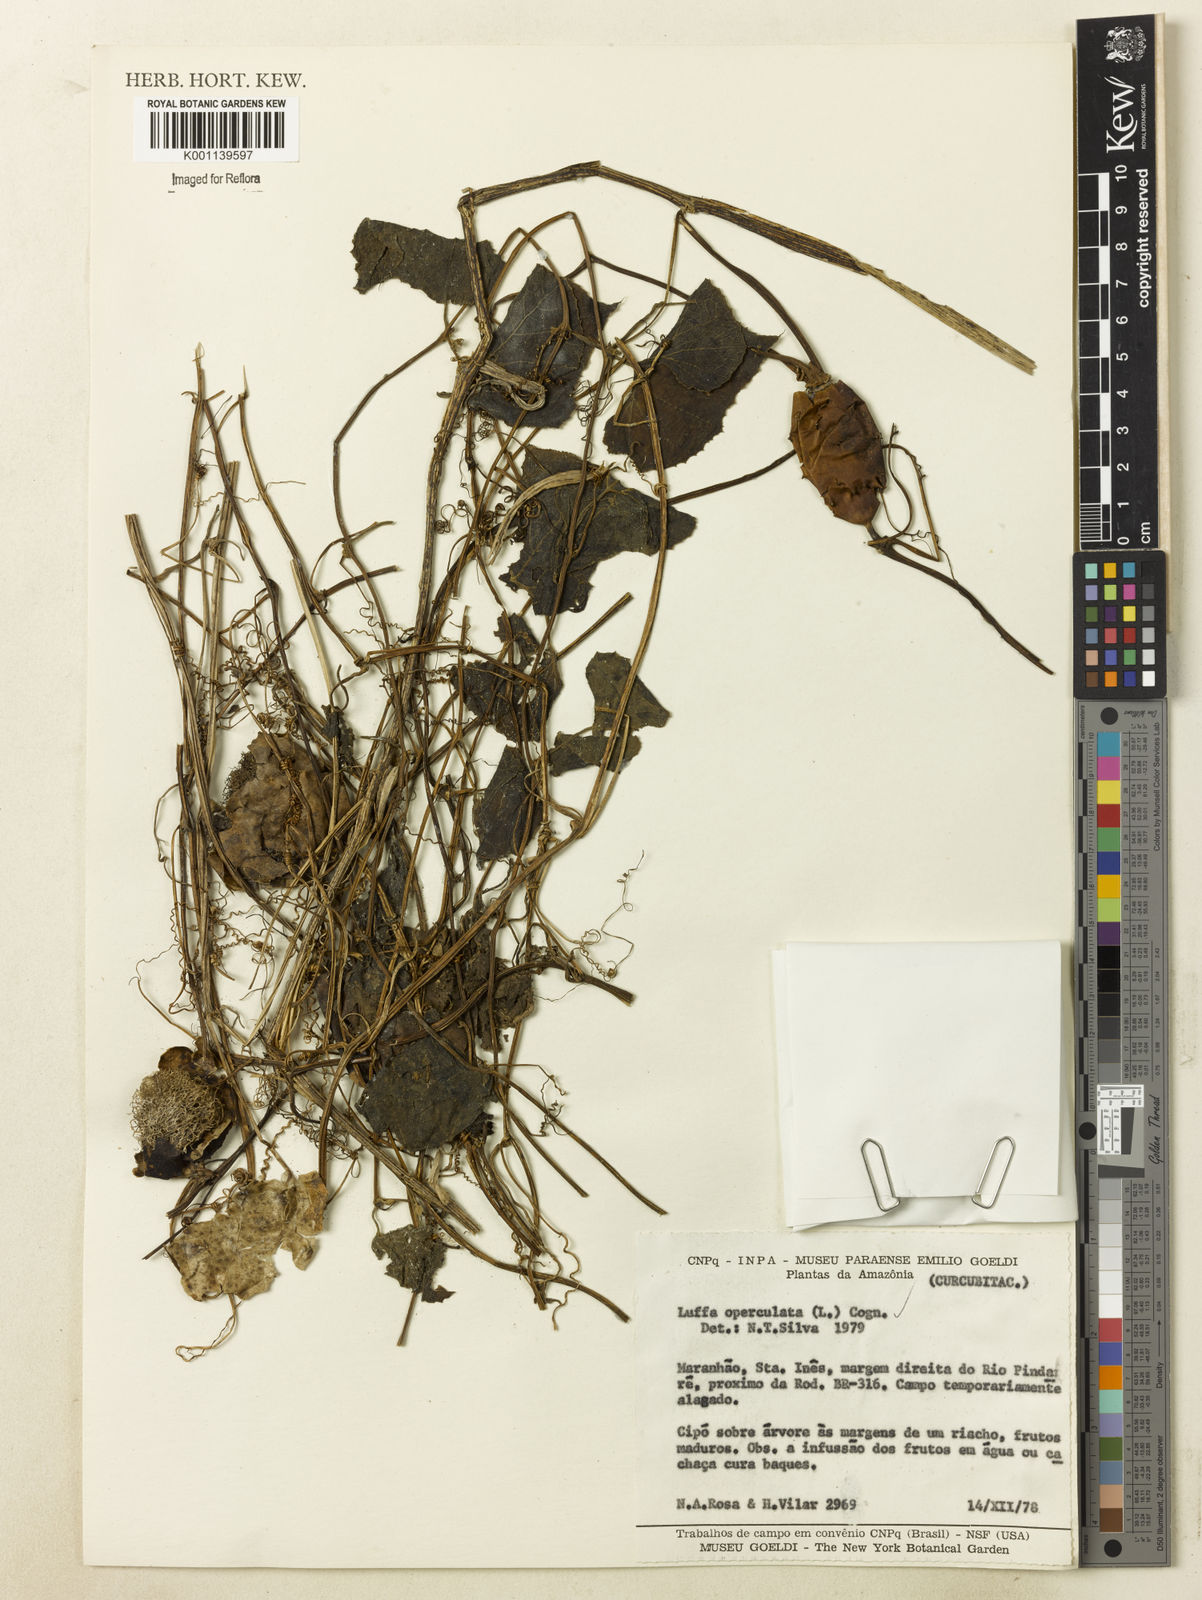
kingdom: Plantae
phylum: Tracheophyta
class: Magnoliopsida
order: Cucurbitales
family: Cucurbitaceae
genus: Luffa
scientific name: Luffa operculata
